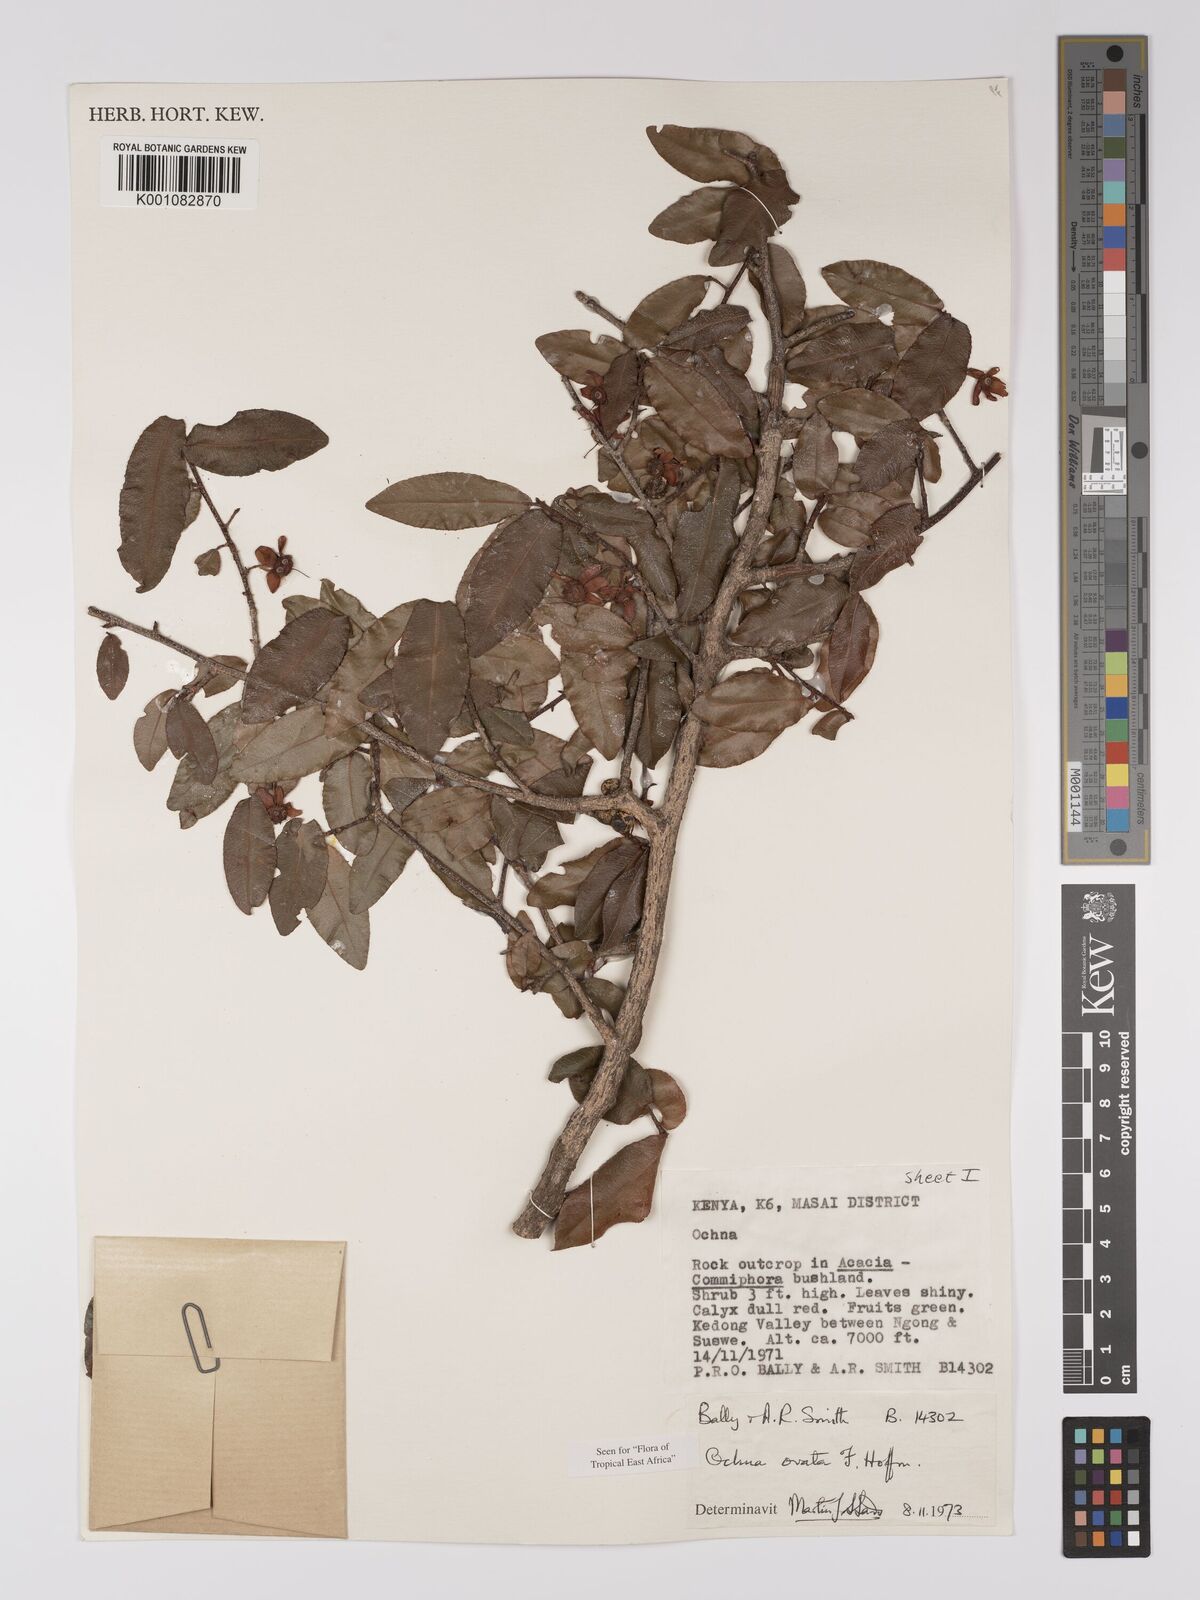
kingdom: Plantae
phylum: Tracheophyta
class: Magnoliopsida
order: Malpighiales
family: Ochnaceae
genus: Ochna
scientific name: Ochna ovata
